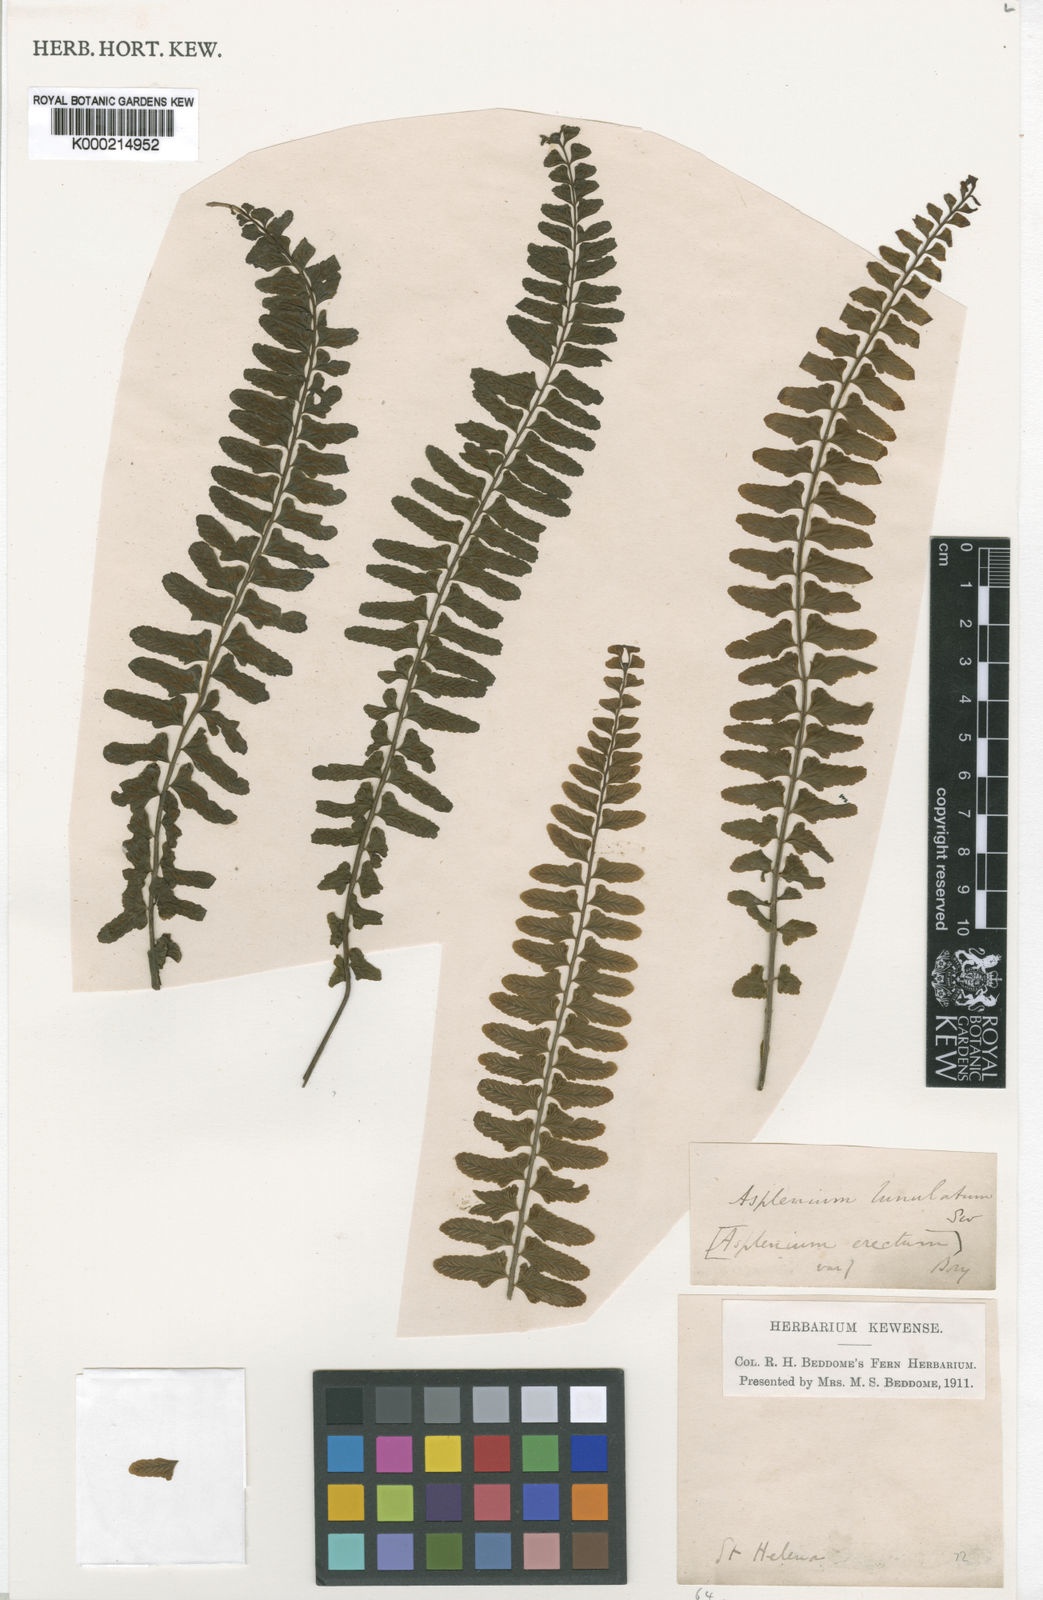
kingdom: Plantae
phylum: Tracheophyta
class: Polypodiopsida
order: Polypodiales
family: Aspleniaceae
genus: Asplenium
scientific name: Asplenium lunulatum
